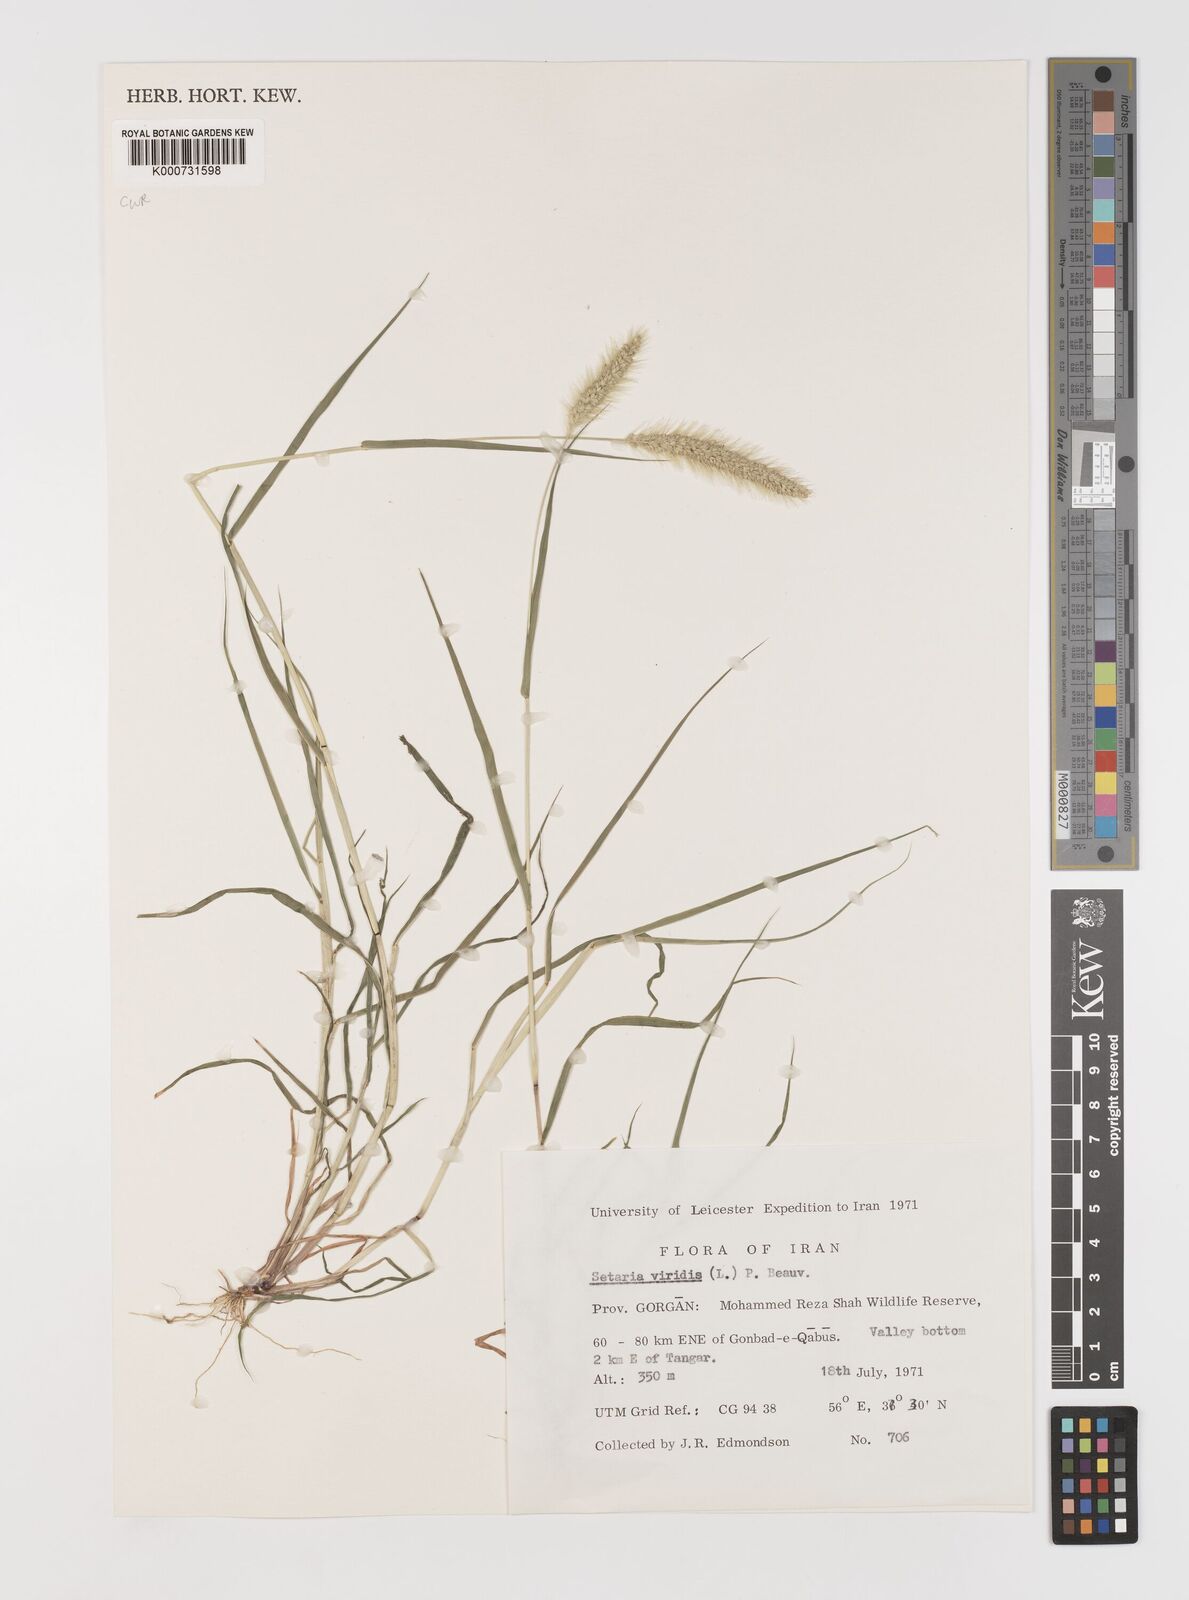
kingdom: Plantae
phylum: Tracheophyta
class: Liliopsida
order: Poales
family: Poaceae
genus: Setaria
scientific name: Setaria viridis
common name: Green bristlegrass
